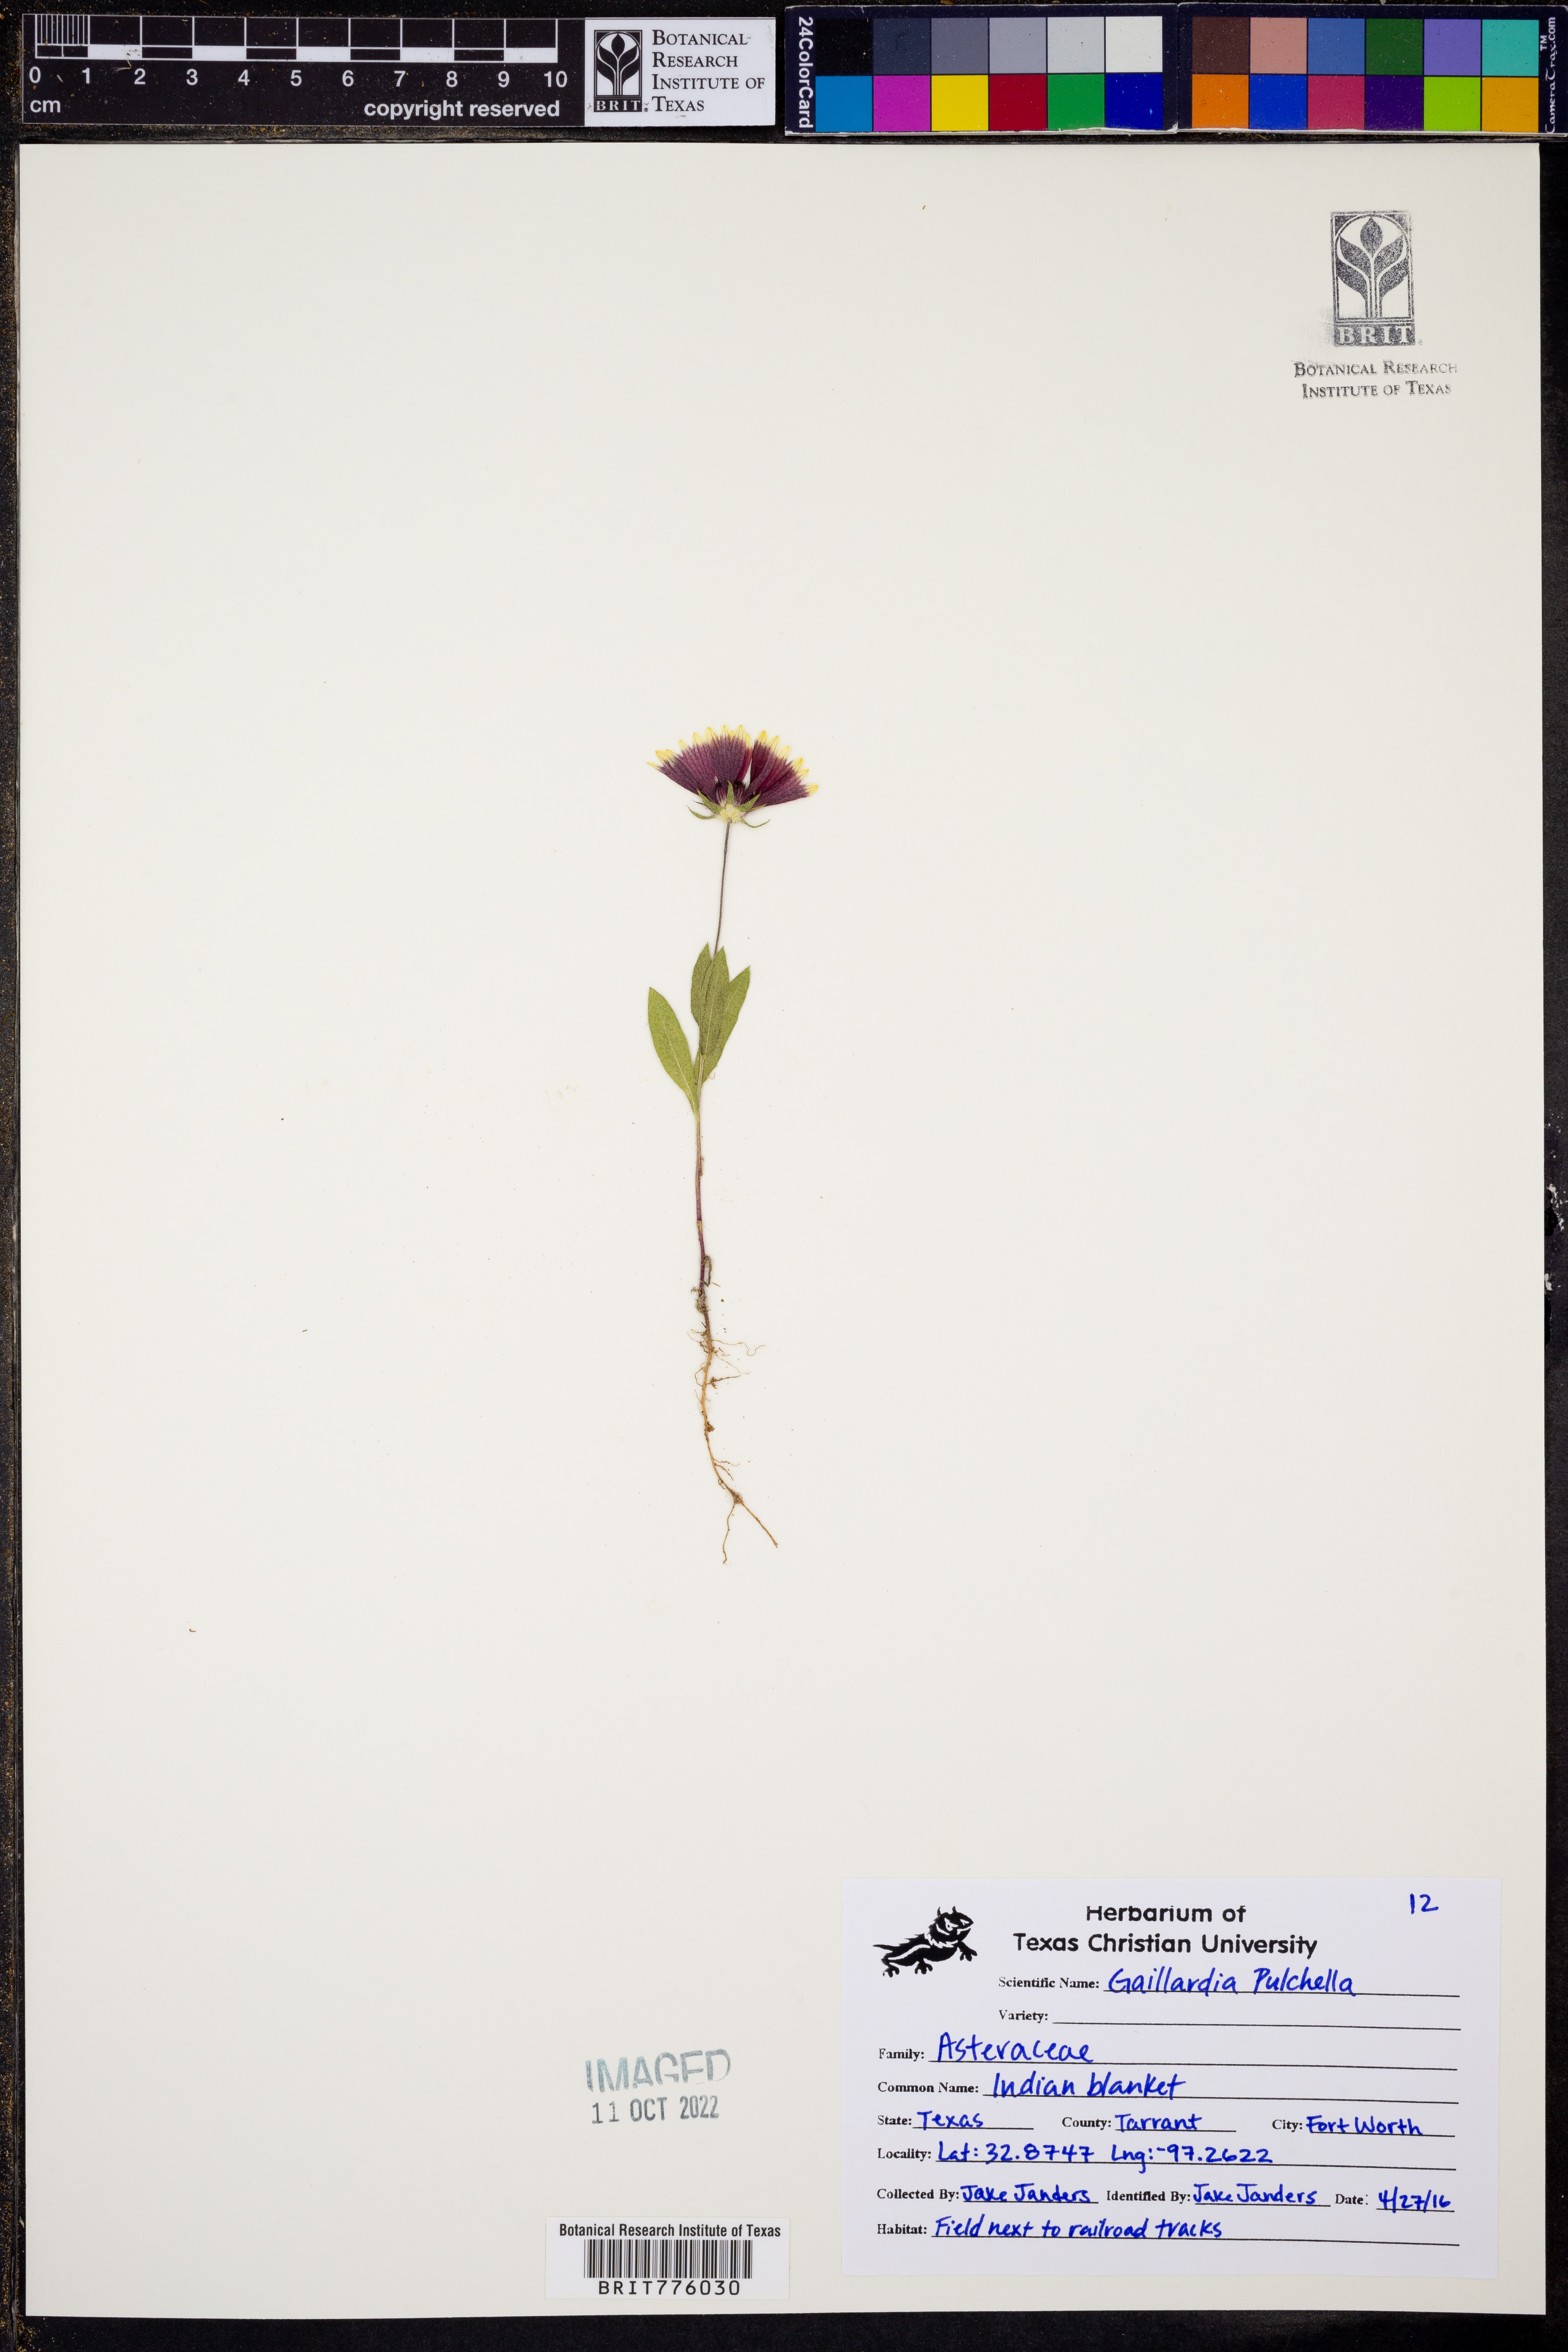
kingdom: Plantae
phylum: Tracheophyta
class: Magnoliopsida
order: Asterales
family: Asteraceae
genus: Gaillardia
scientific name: Gaillardia pulchella
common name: Firewheel
